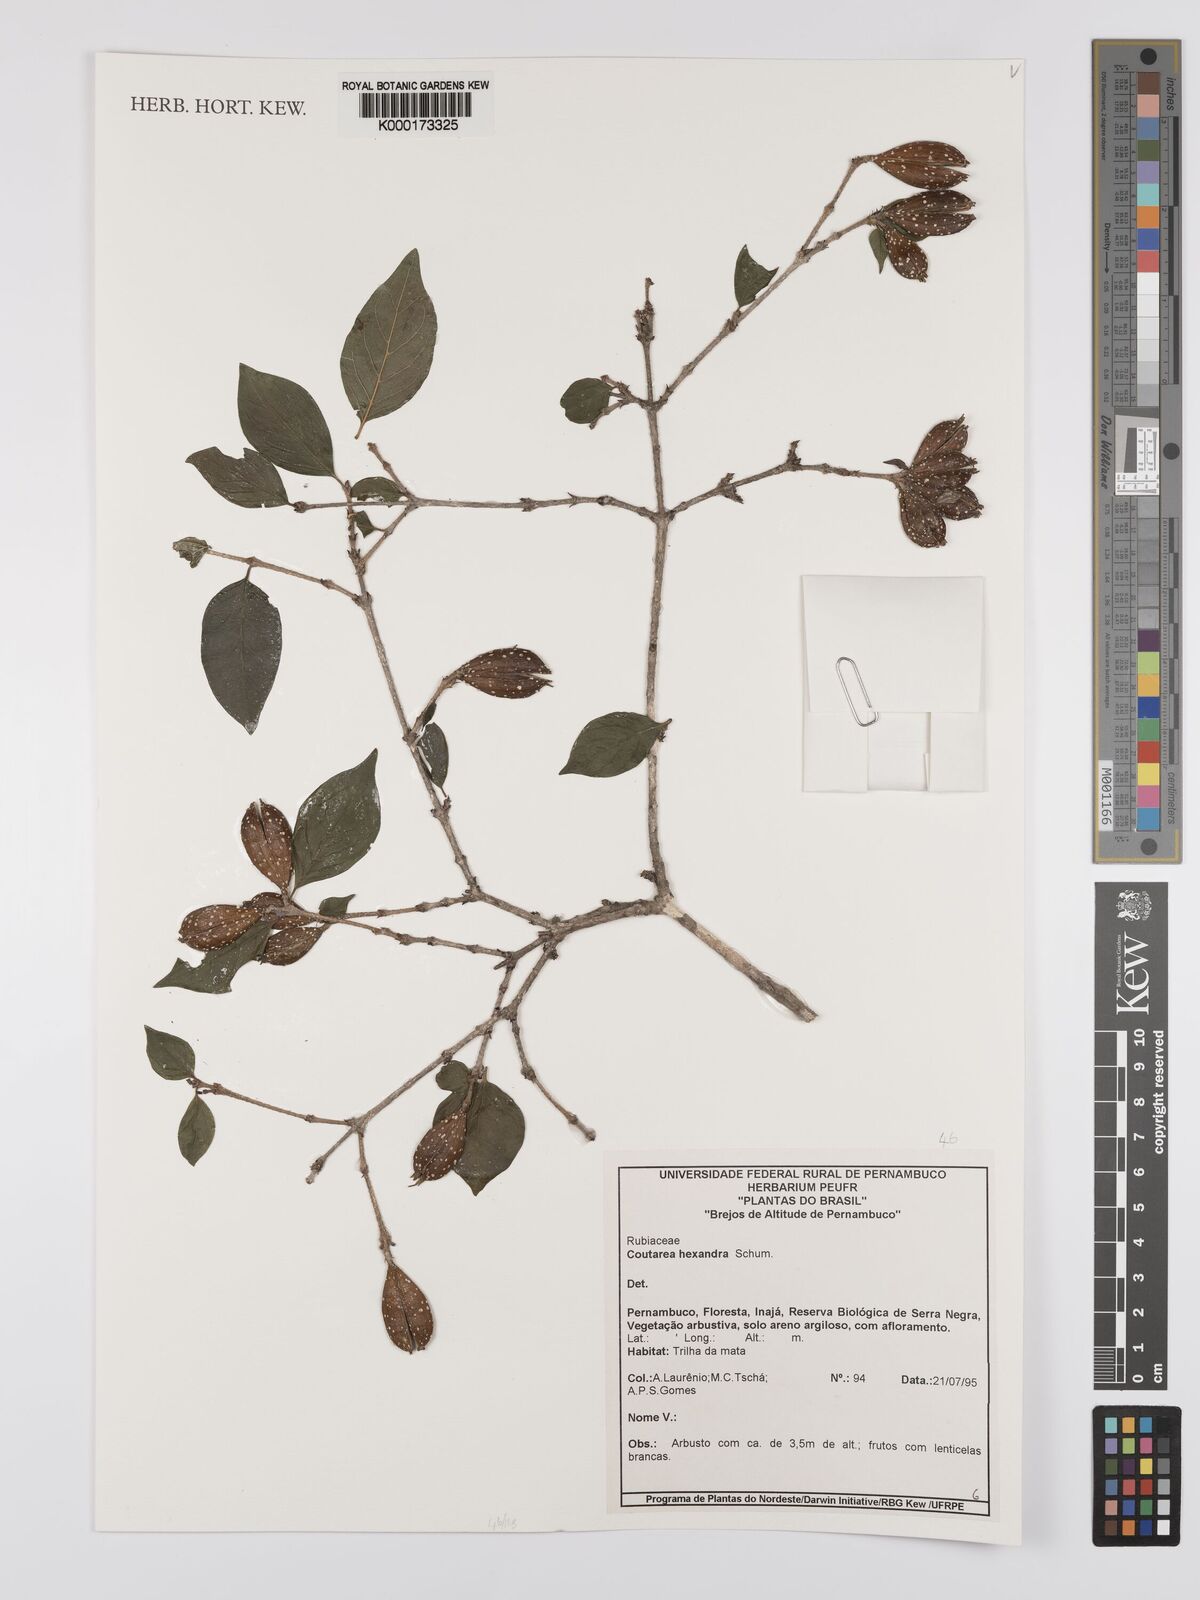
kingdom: Plantae
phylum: Tracheophyta
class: Magnoliopsida
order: Gentianales
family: Rubiaceae
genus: Coutarea
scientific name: Coutarea hexandra
